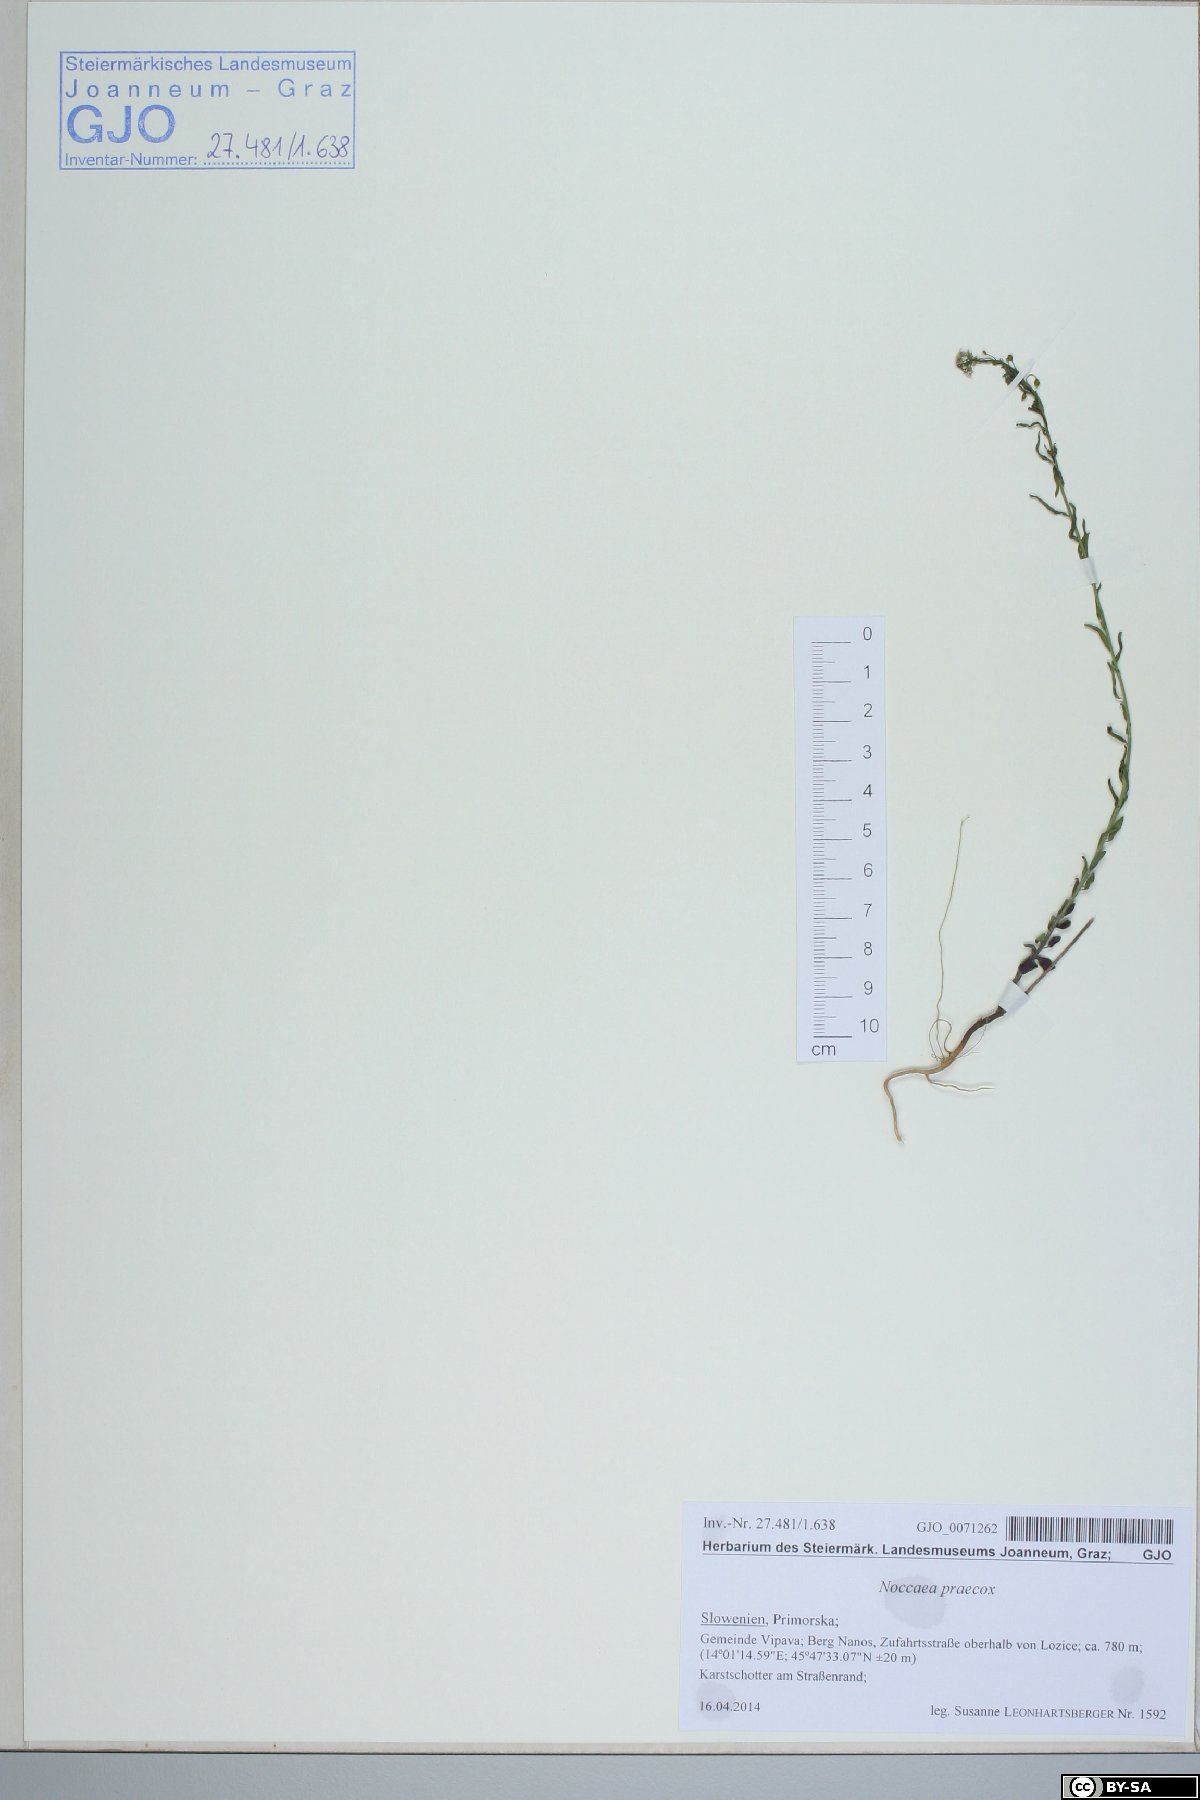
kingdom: Plantae
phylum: Tracheophyta
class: Magnoliopsida
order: Brassicales
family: Brassicaceae
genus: Noccaea
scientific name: Noccaea praecox
